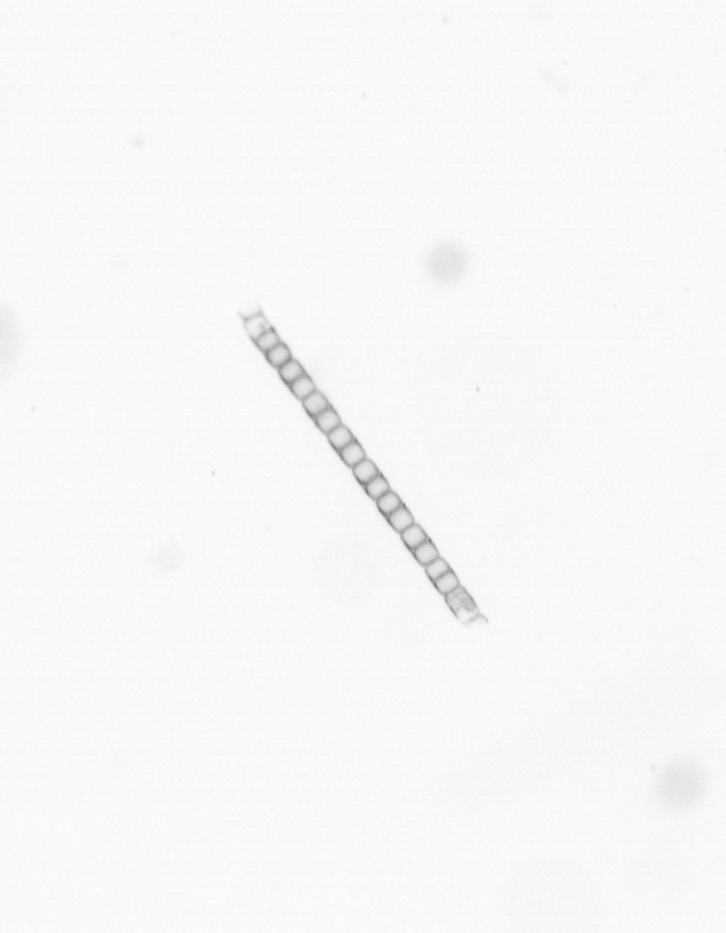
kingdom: Chromista
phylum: Ochrophyta
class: Bacillariophyceae
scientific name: Bacillariophyceae
